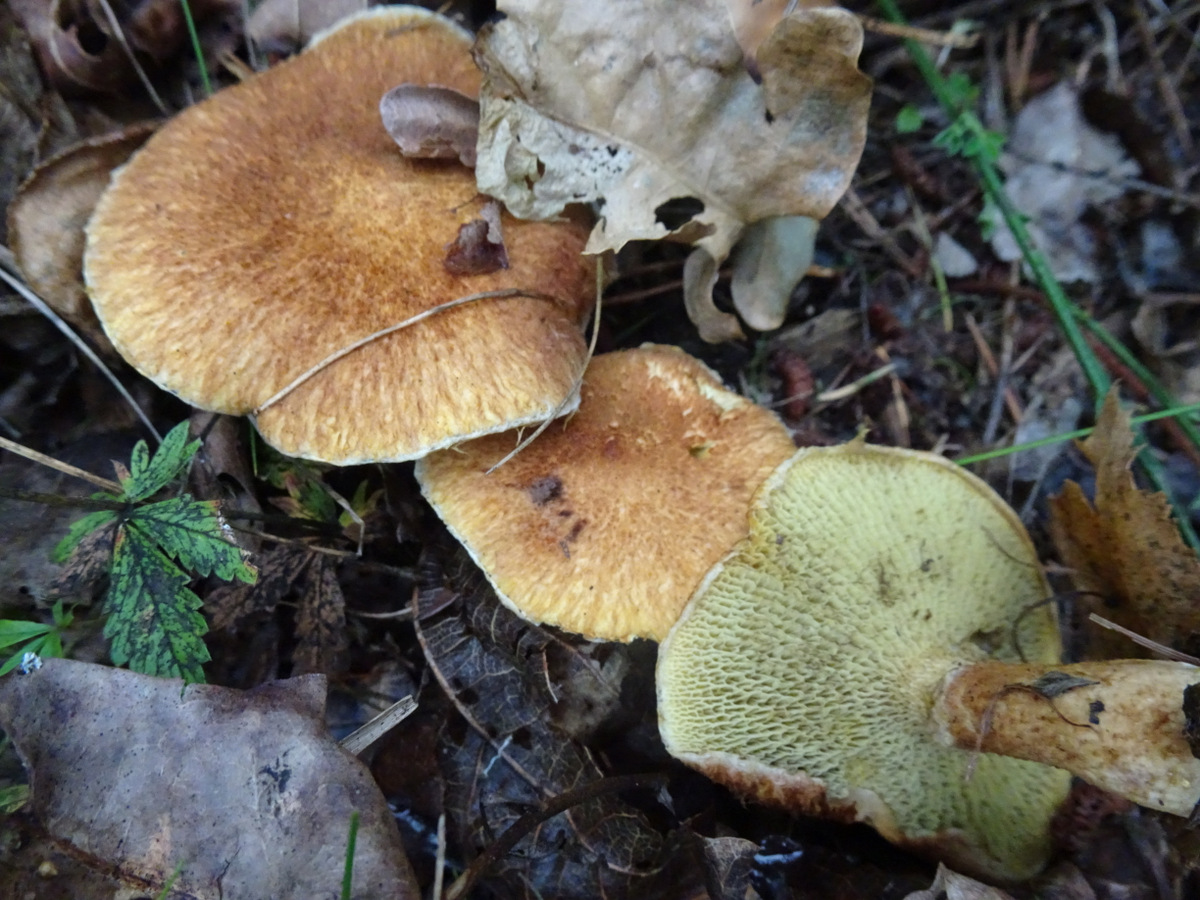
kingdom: Fungi
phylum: Basidiomycota
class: Agaricomycetes
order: Boletales
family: Suillaceae
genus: Suillus
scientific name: Suillus cavipes
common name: hulstokket slimrørhat
